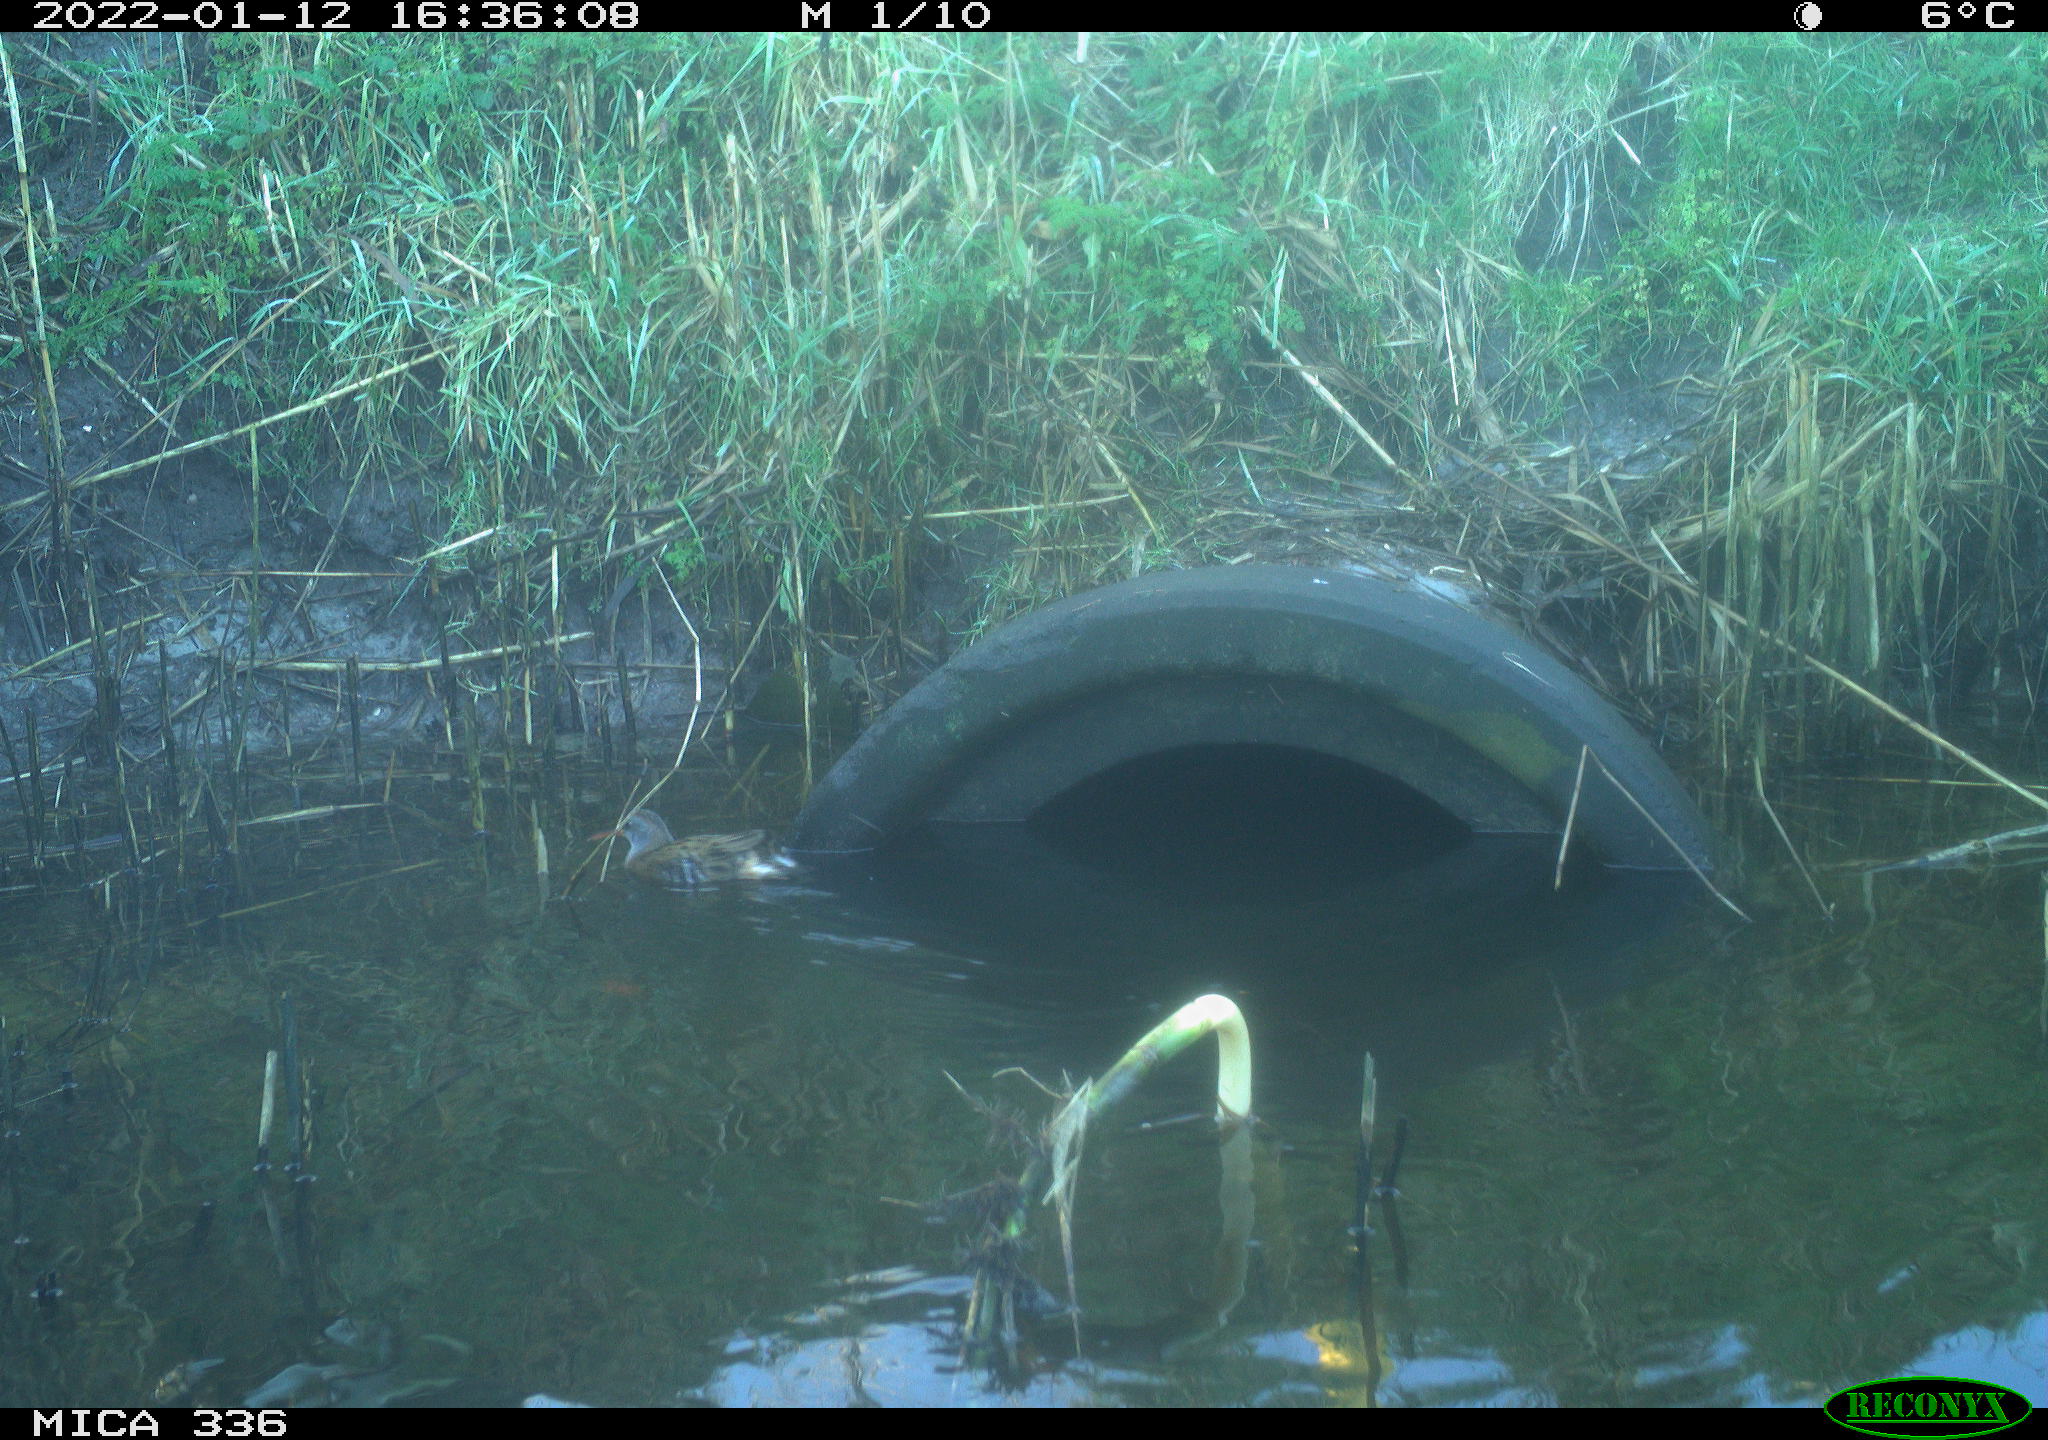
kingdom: Animalia
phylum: Chordata
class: Aves
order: Gruiformes
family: Rallidae
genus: Gallinula
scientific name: Gallinula chloropus
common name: Common moorhen
